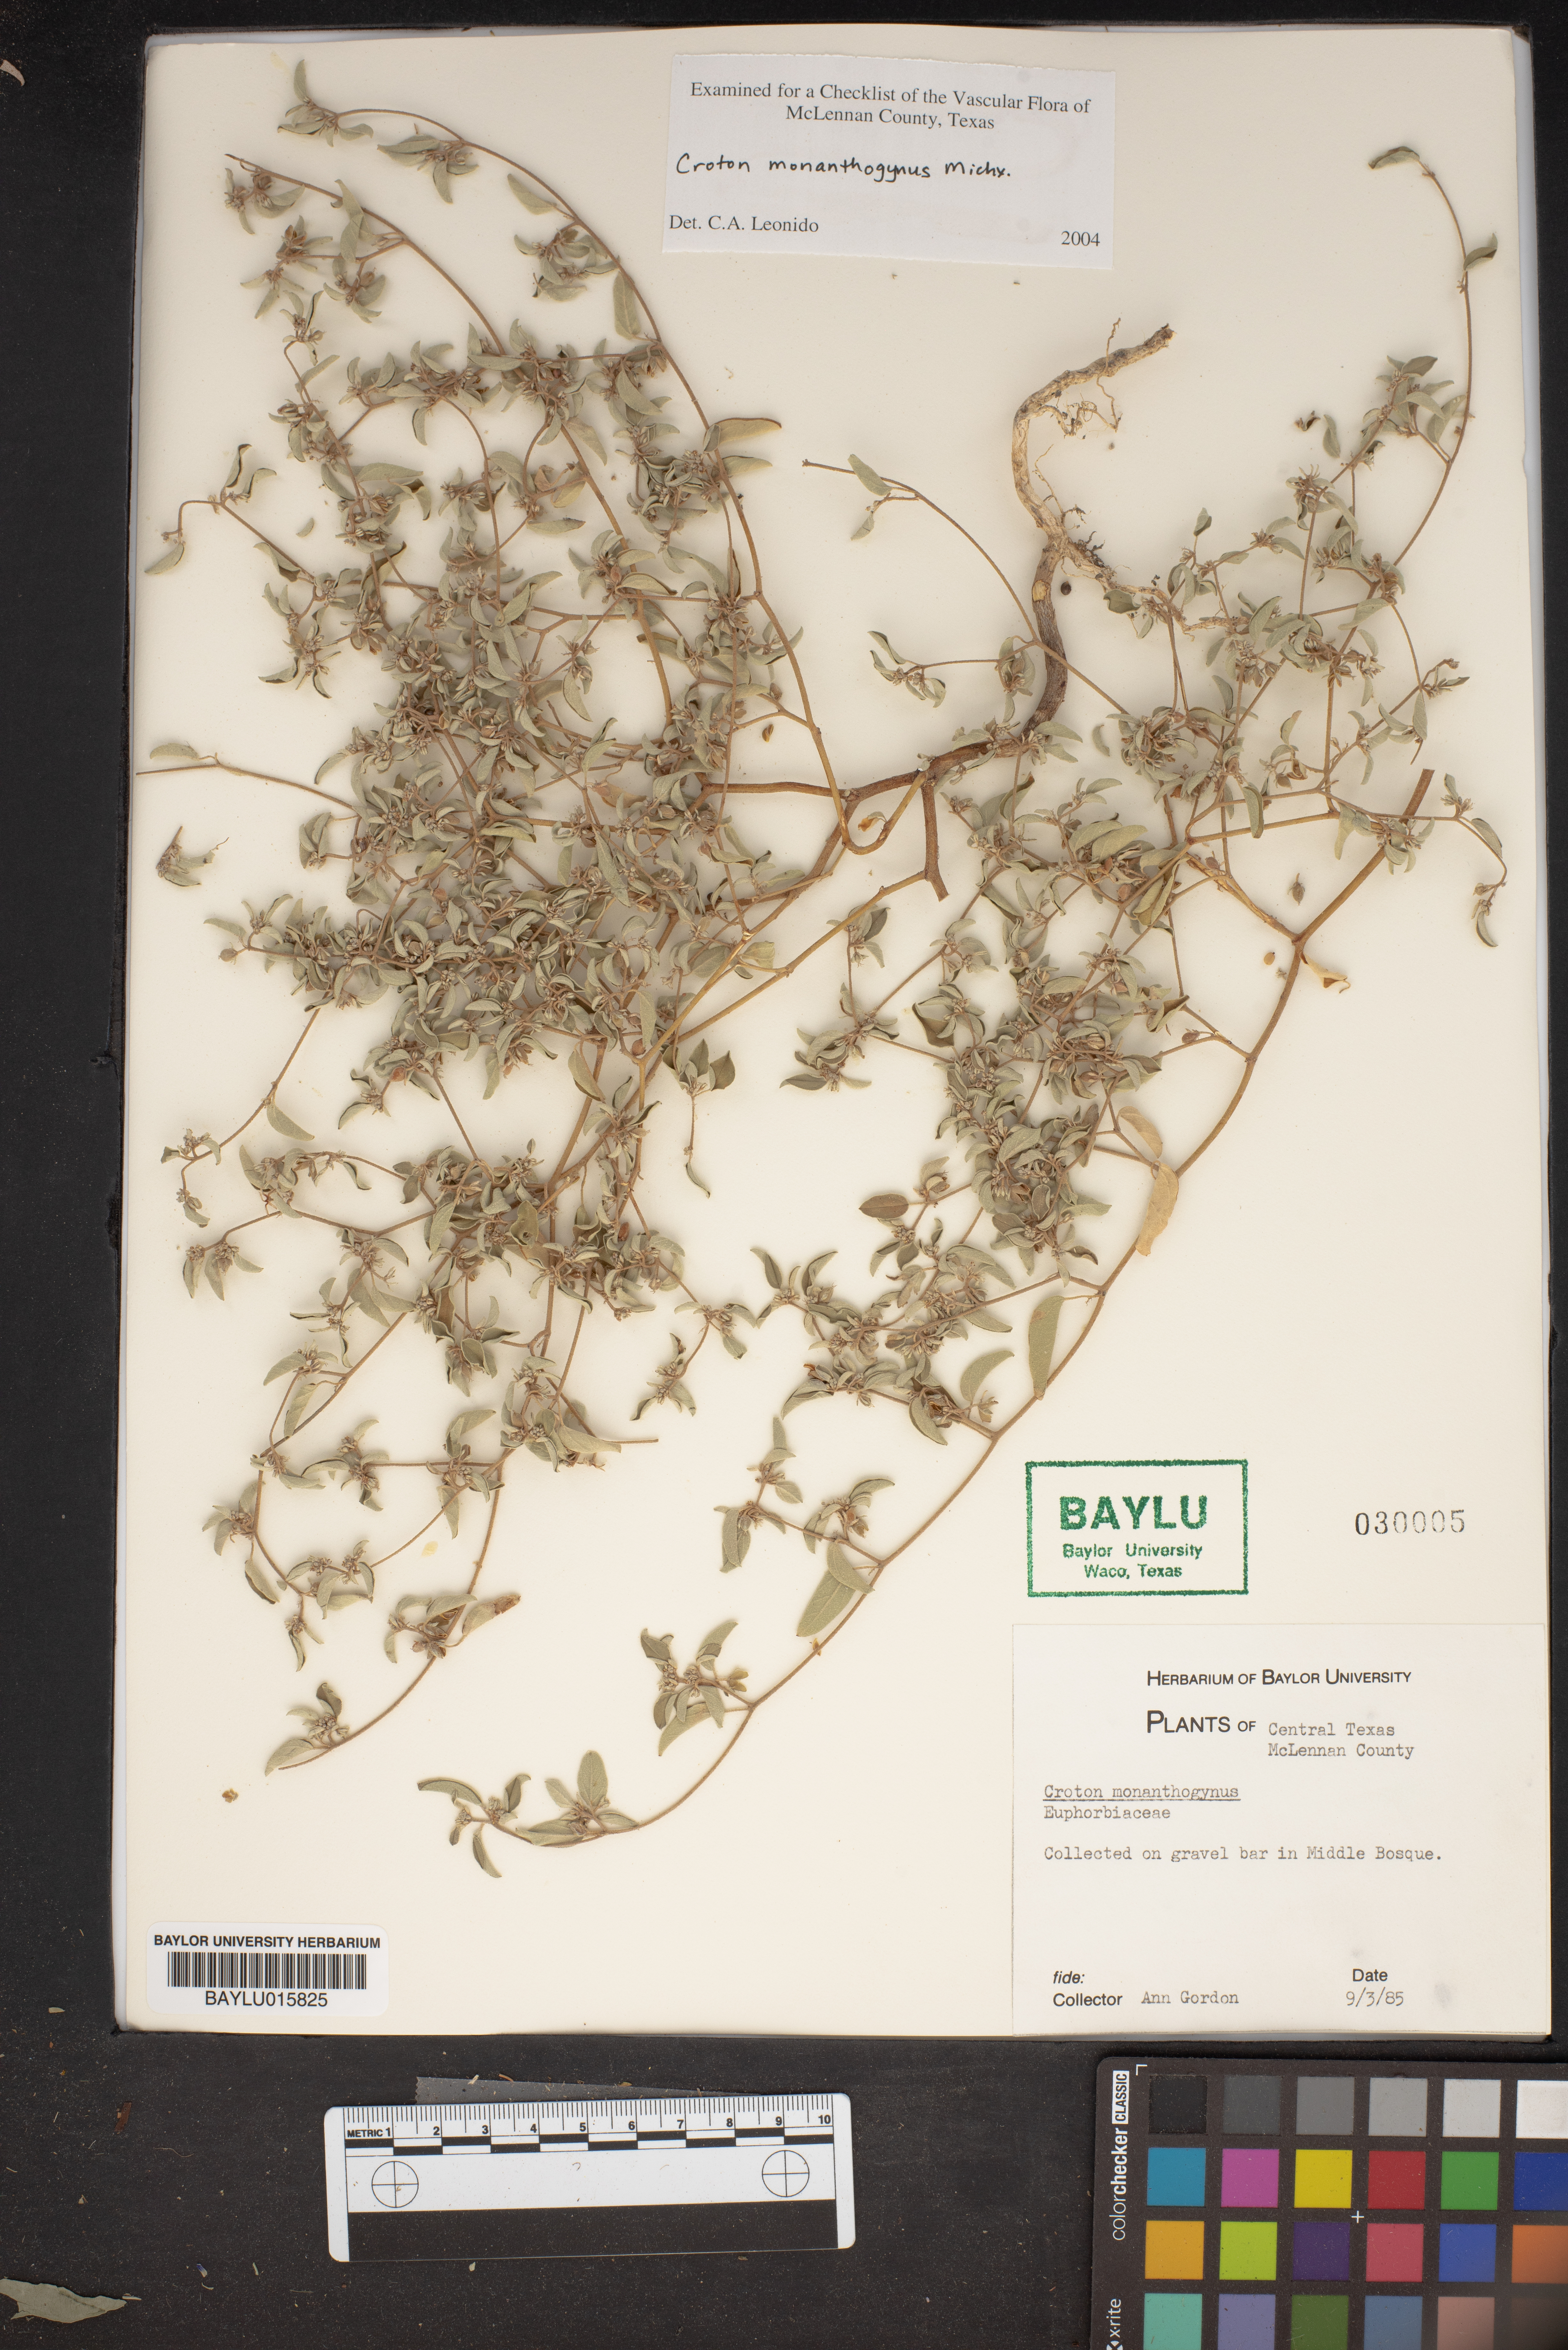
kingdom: Plantae
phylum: Tracheophyta
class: Magnoliopsida
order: Malpighiales
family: Euphorbiaceae
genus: Croton
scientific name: Croton monanthogynus
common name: One-seed croton
